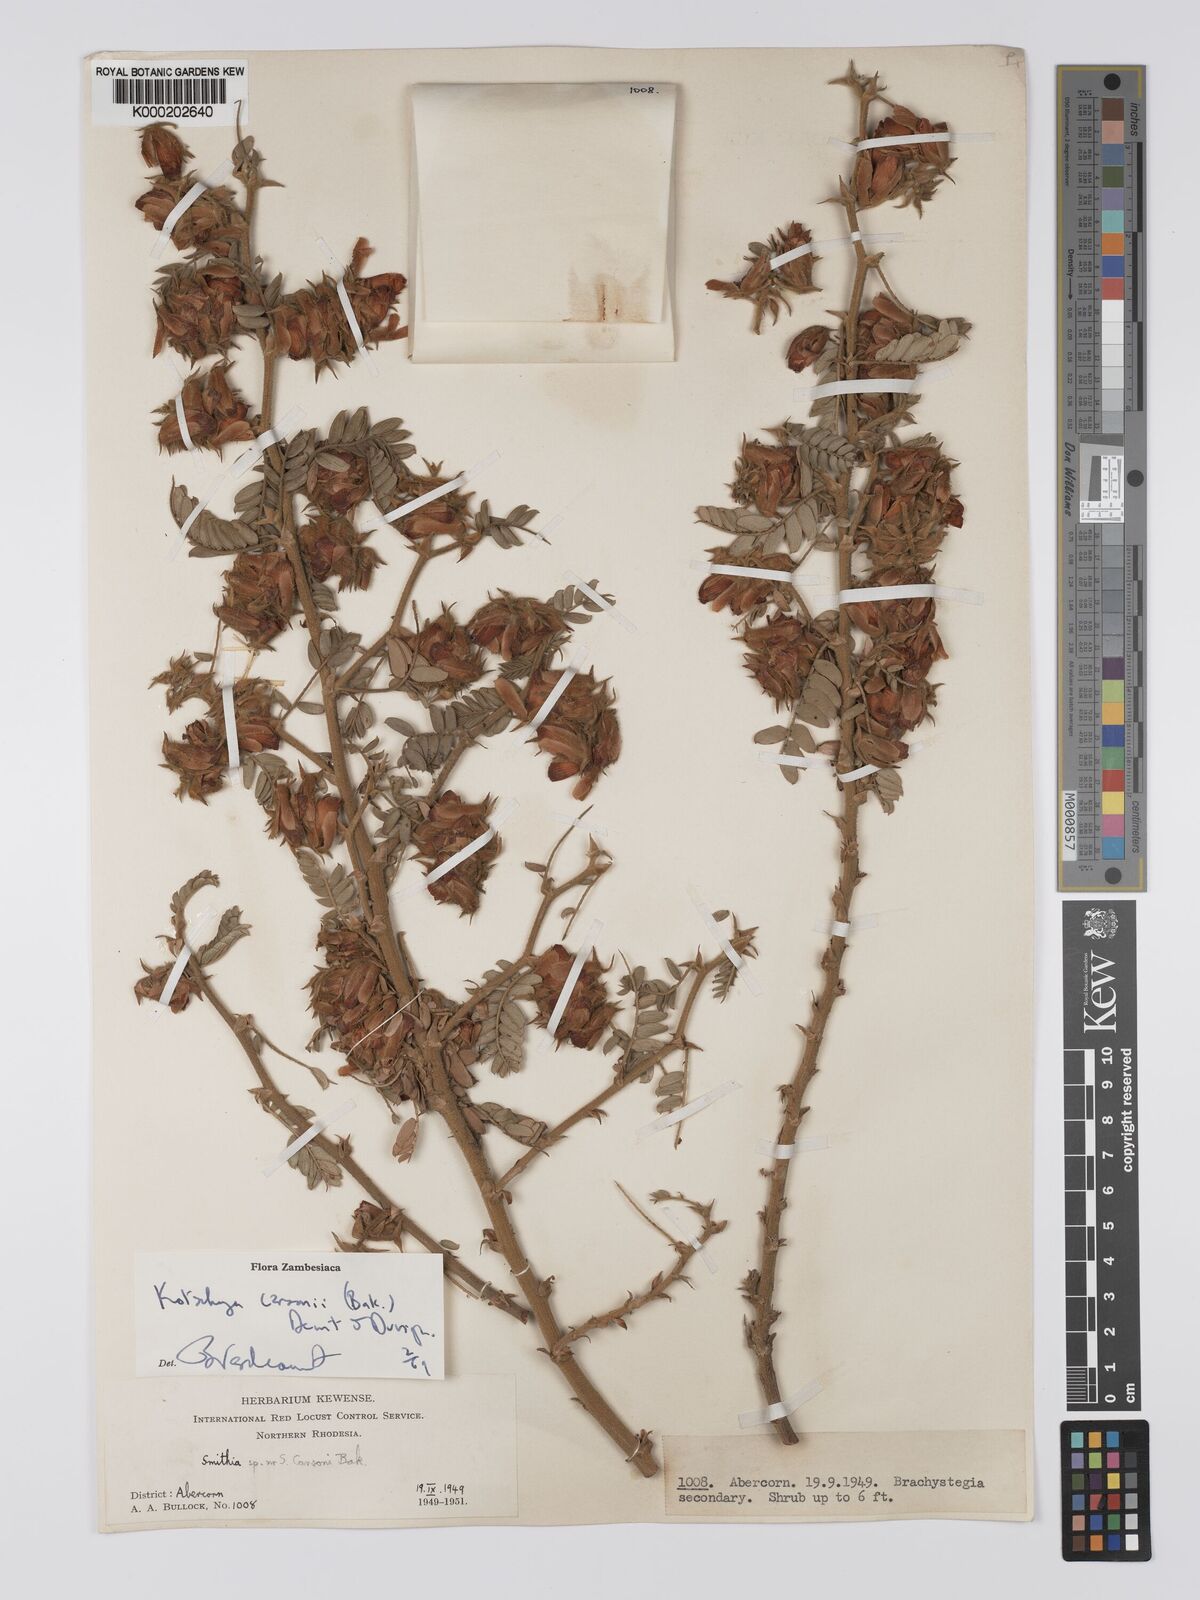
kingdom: Plantae
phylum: Tracheophyta
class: Magnoliopsida
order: Fabales
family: Fabaceae
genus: Kotschya
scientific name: Kotschya carsonii
